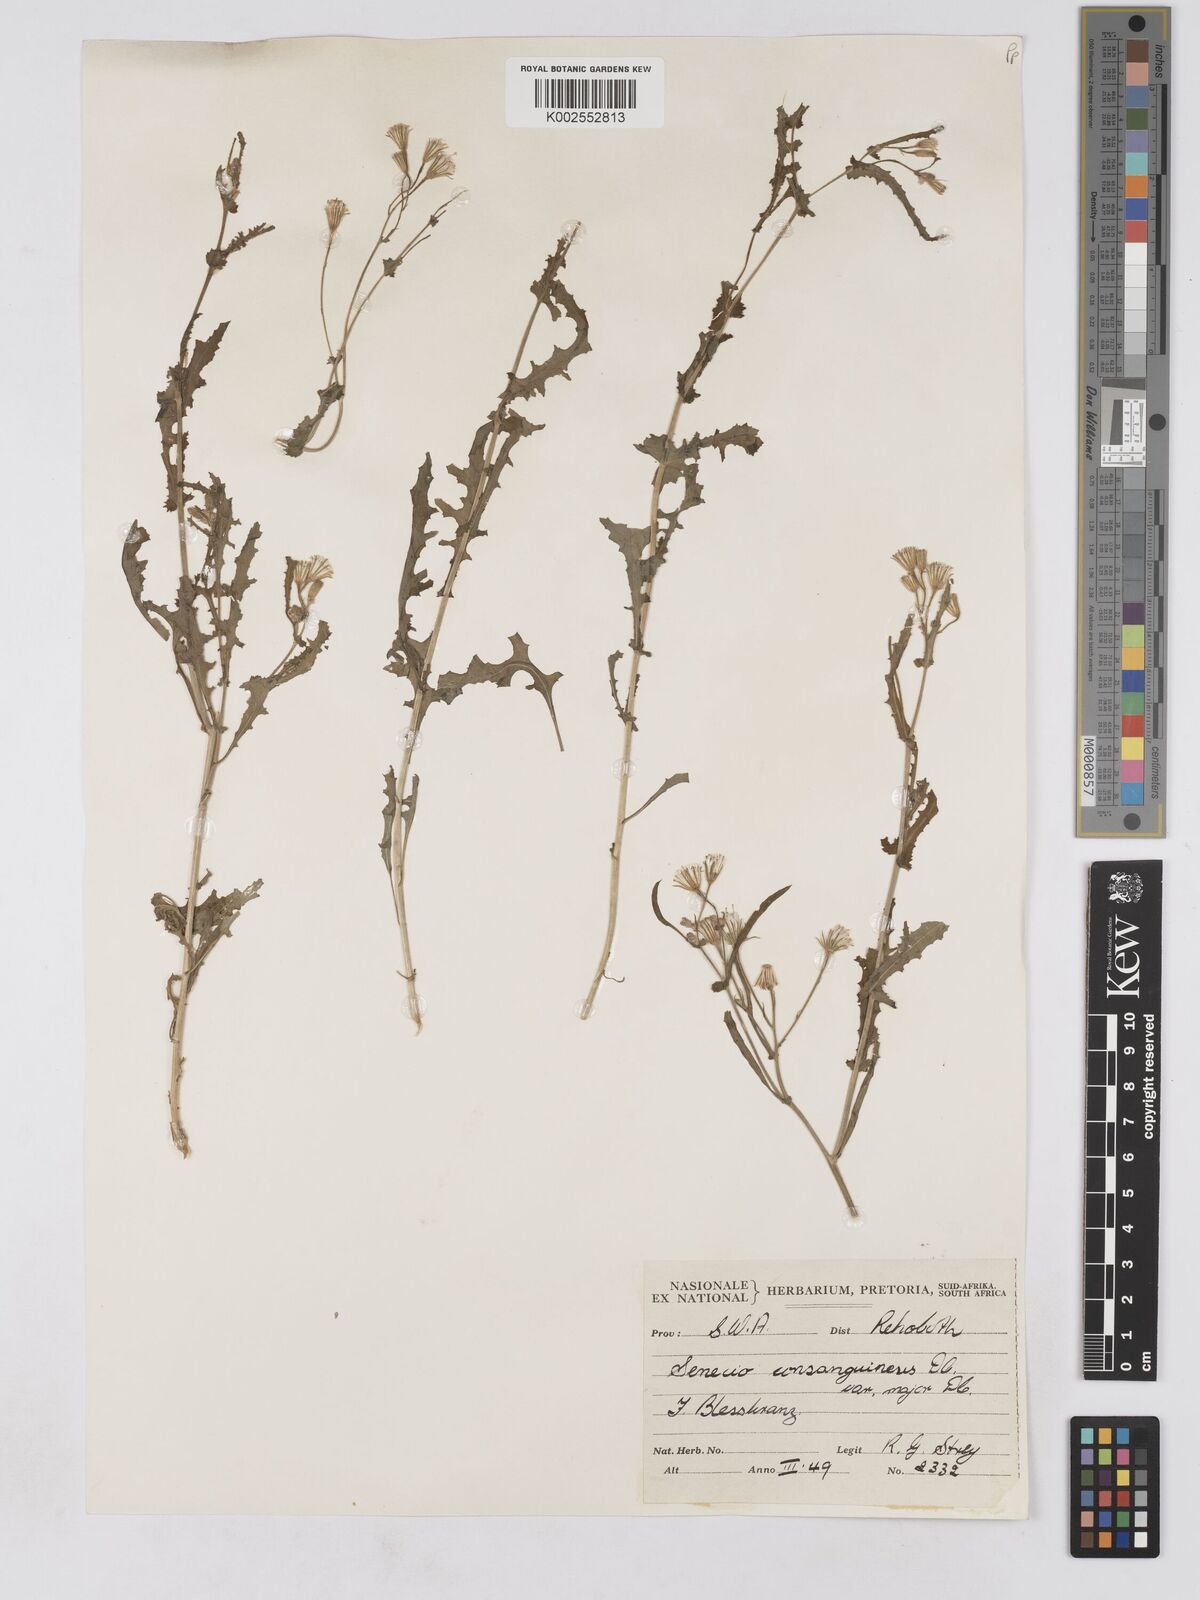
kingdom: Plantae
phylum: Tracheophyta
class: Magnoliopsida
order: Asterales
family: Asteraceae
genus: Senecio
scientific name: Senecio consanguineus
